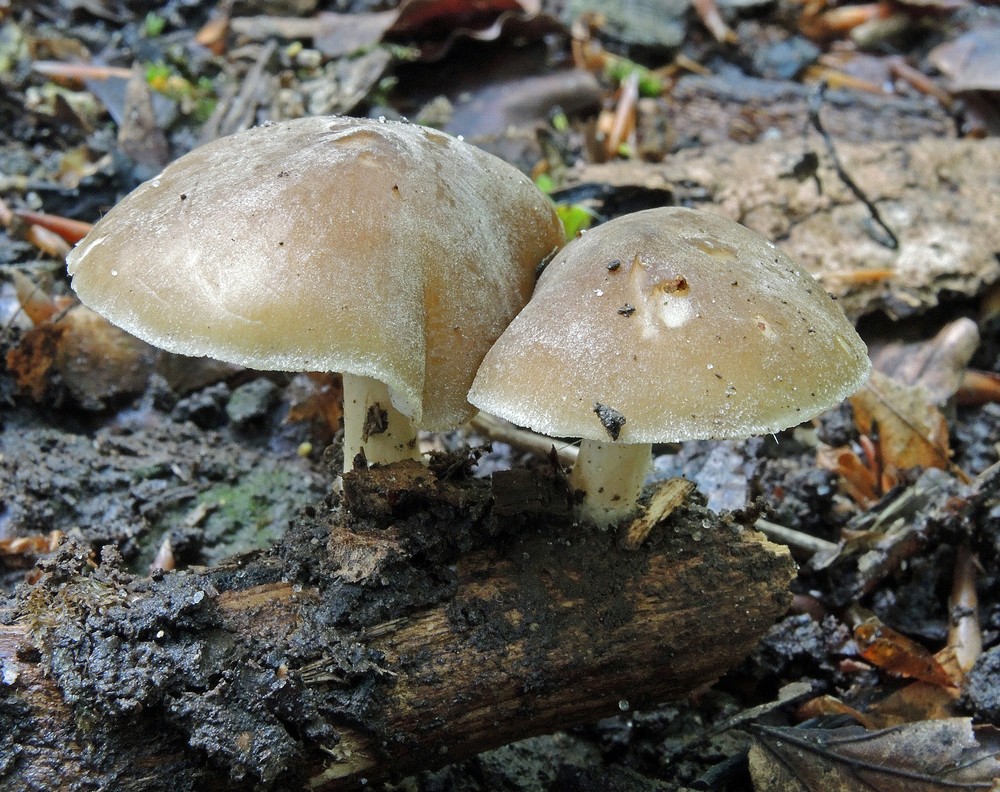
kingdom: Fungi
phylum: Basidiomycota
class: Agaricomycetes
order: Agaricales
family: Porotheleaceae
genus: Hydropodia
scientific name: Hydropodia subalpina
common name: vår-fnugfod
